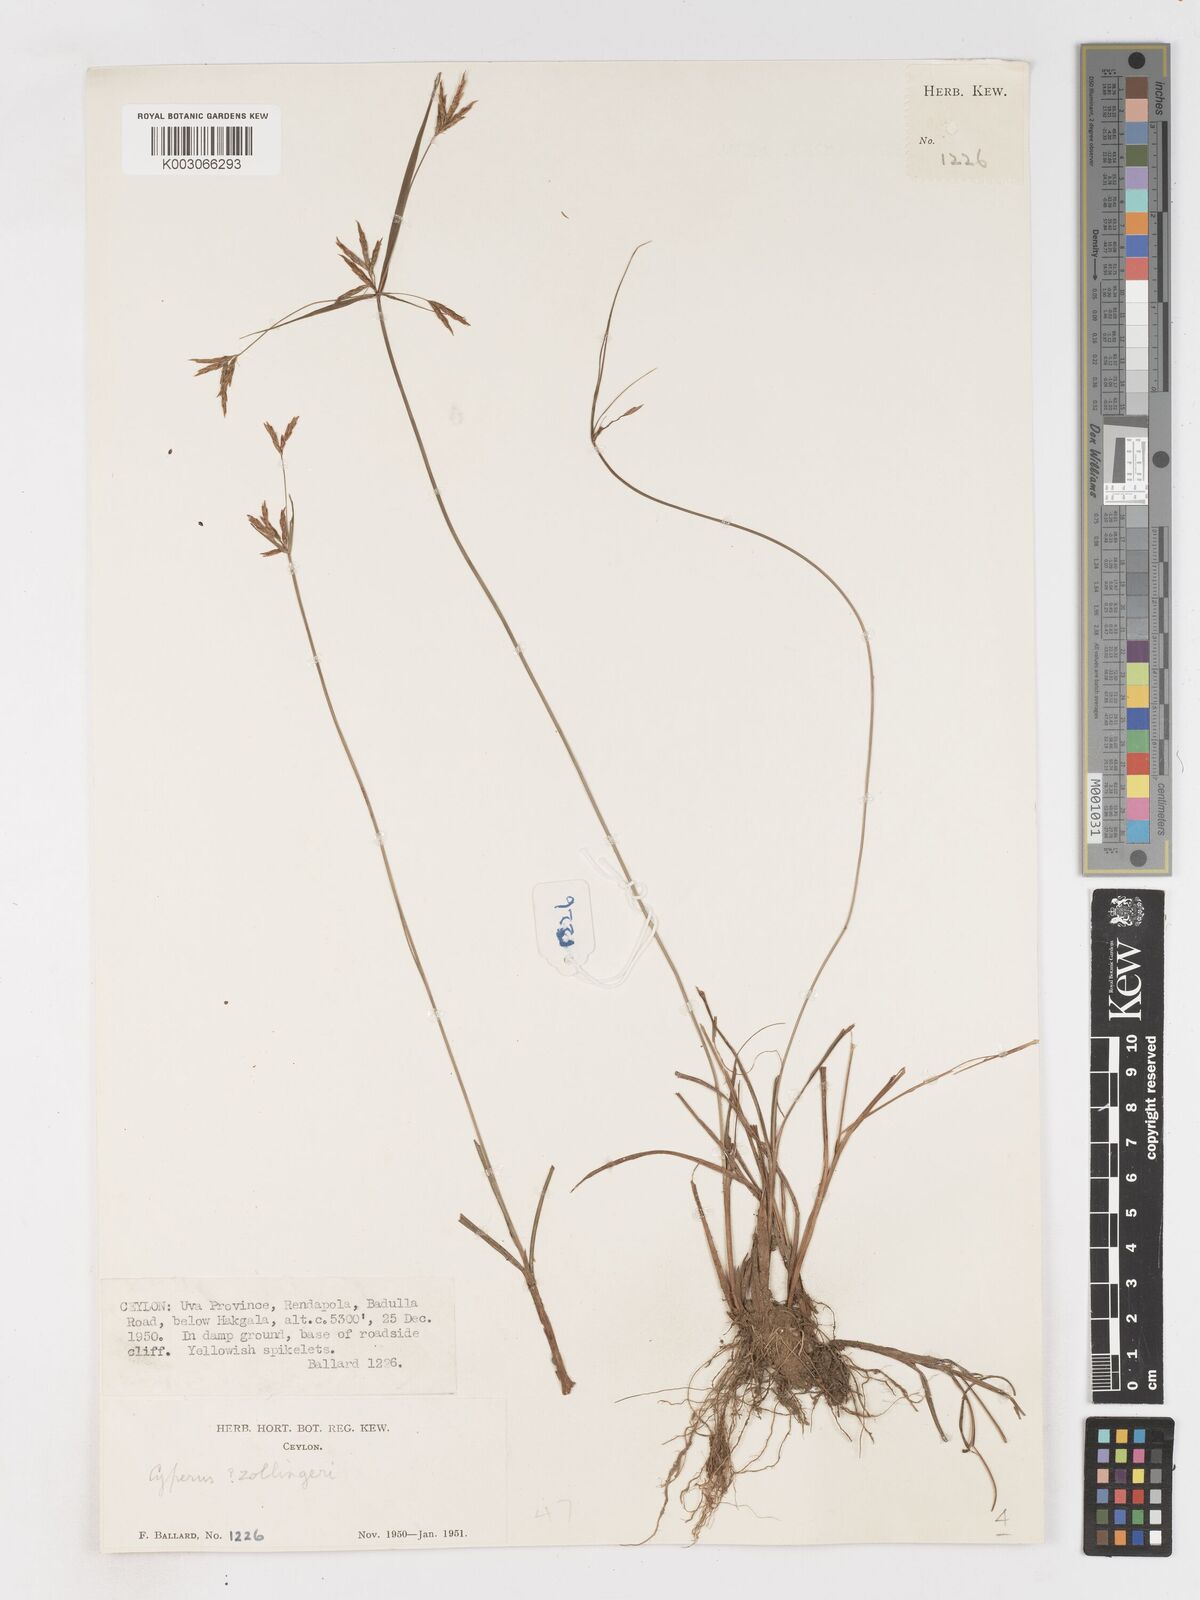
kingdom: Plantae
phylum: Tracheophyta
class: Liliopsida
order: Poales
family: Cyperaceae
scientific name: Cyperaceae
